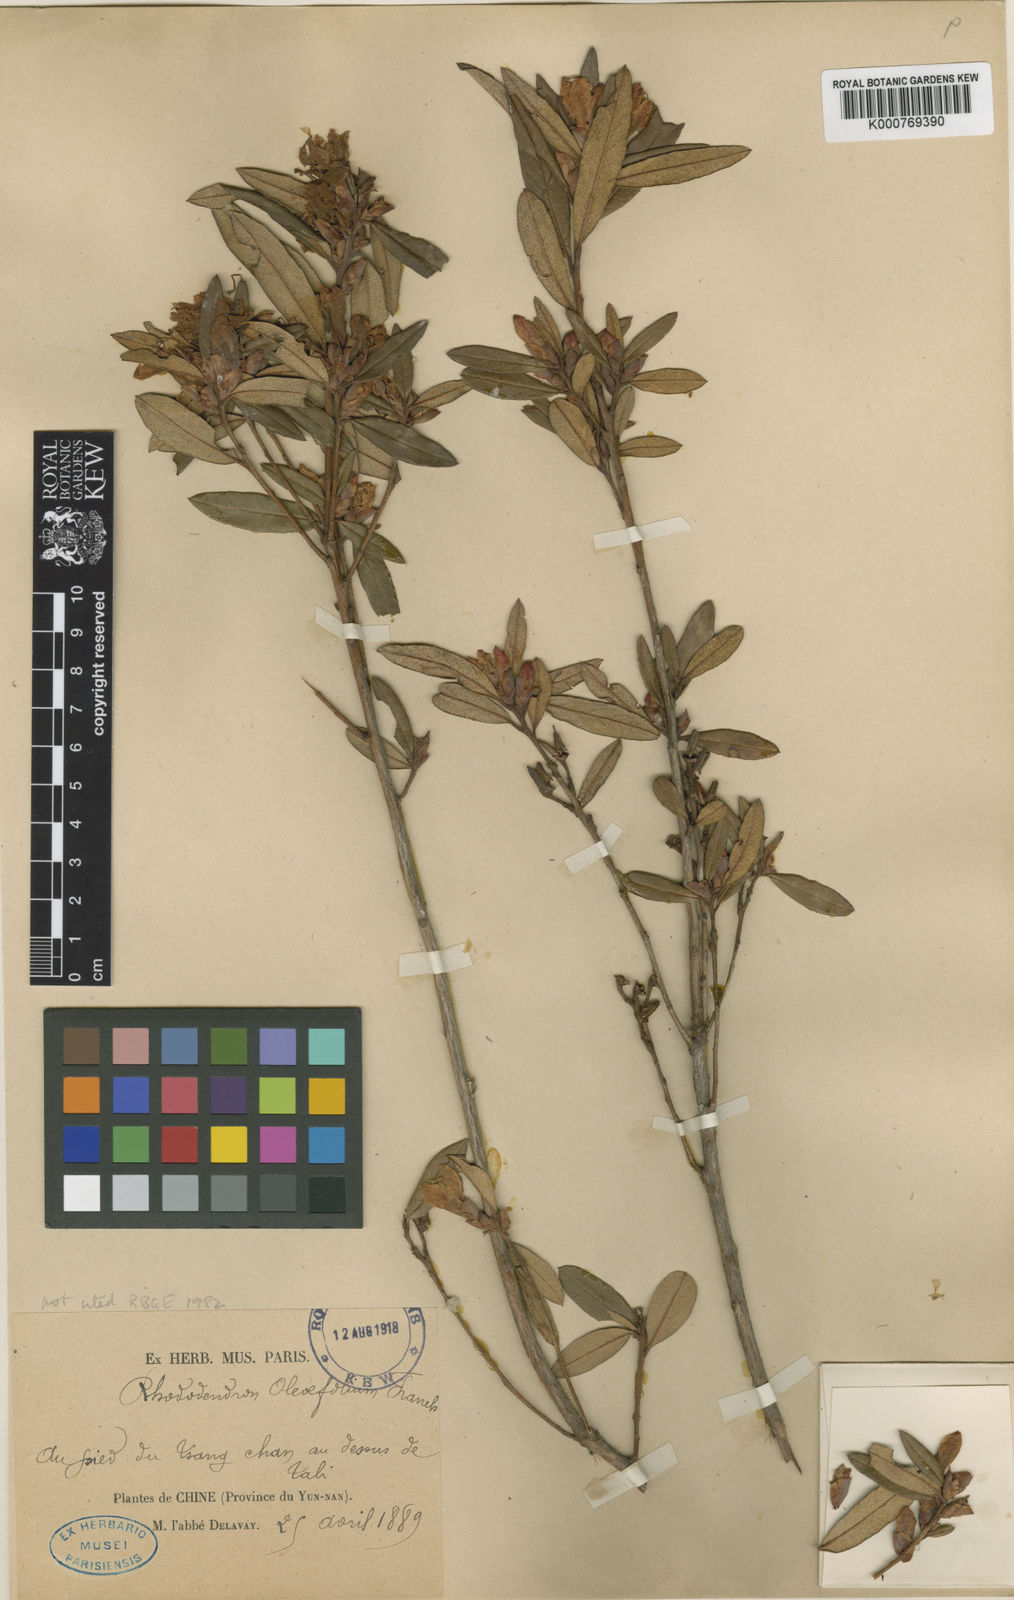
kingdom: Plantae
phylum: Tracheophyta
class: Magnoliopsida
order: Ericales
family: Ericaceae
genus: Rhododendron
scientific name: Rhododendron virgatum
